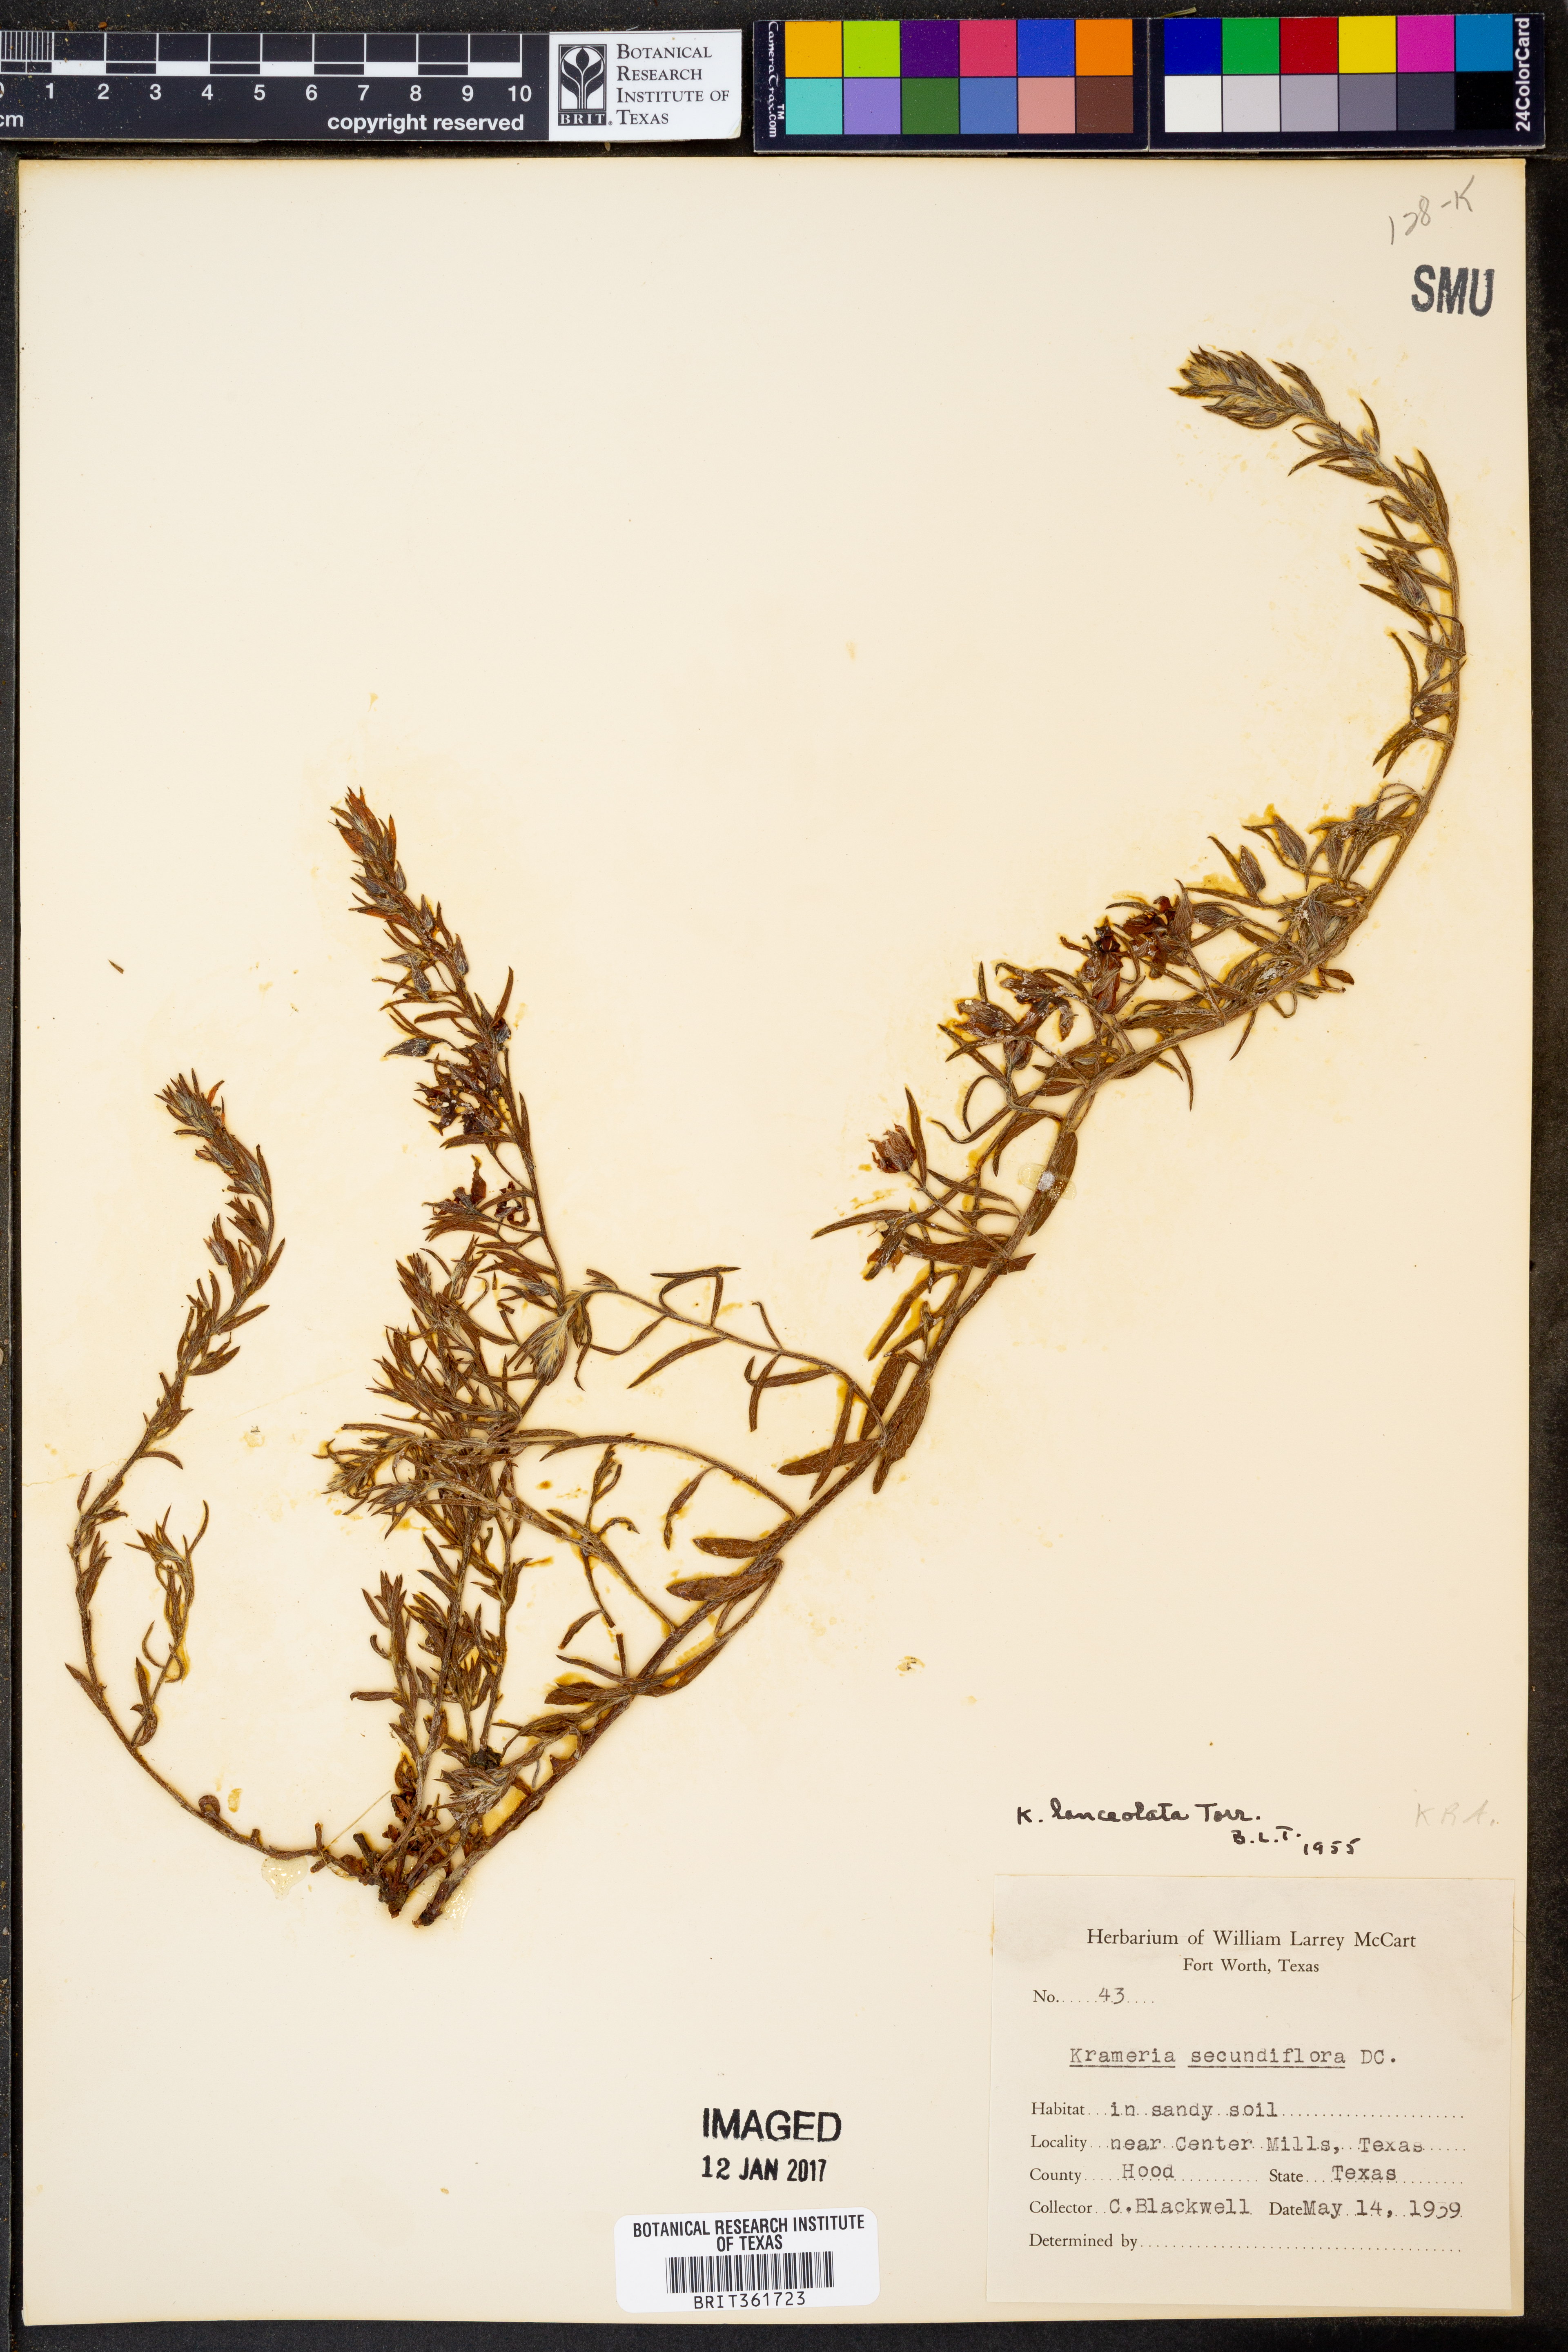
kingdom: Plantae
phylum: Tracheophyta
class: Magnoliopsida
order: Zygophyllales
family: Krameriaceae
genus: Krameria
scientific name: Krameria lanceolata
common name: Ratany
